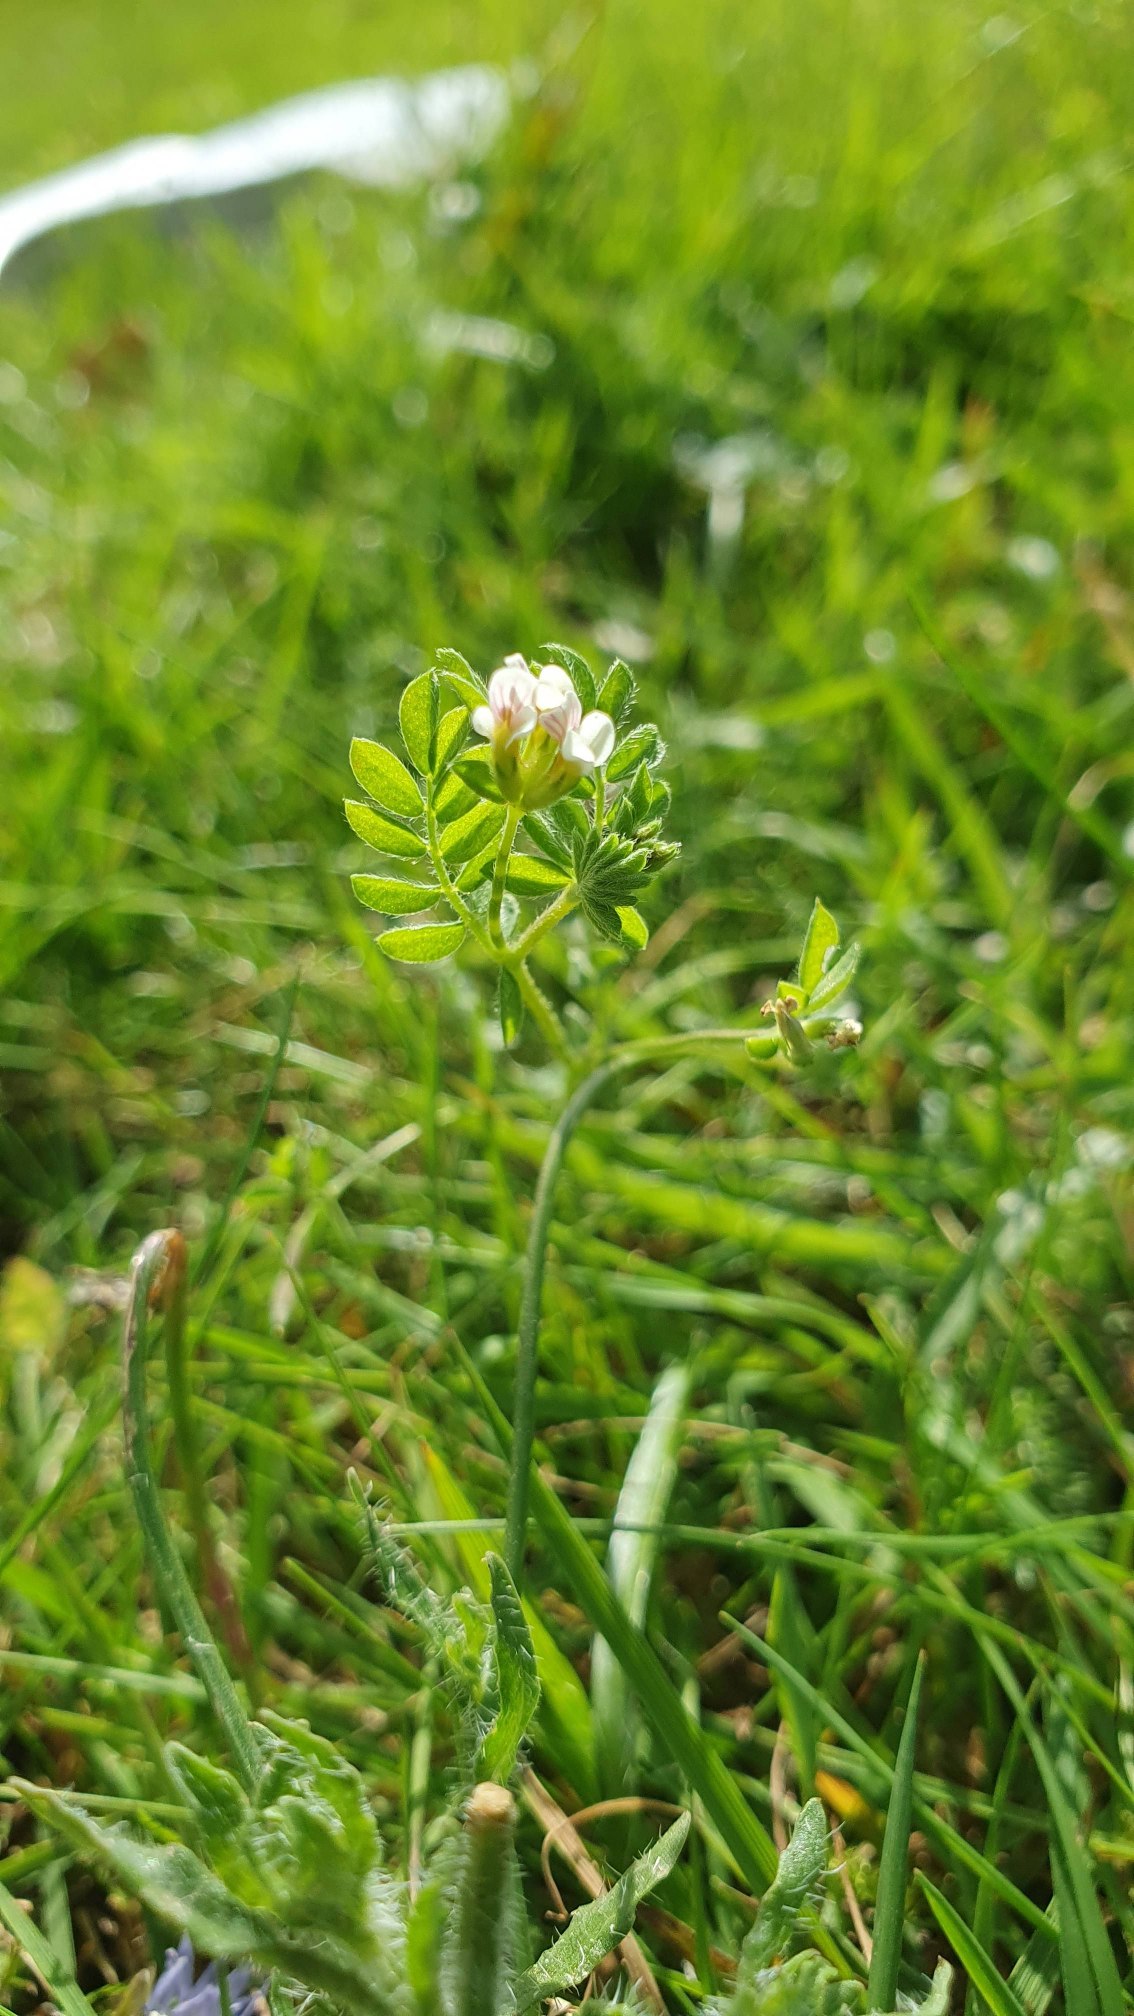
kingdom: Plantae
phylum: Tracheophyta
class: Magnoliopsida
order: Fabales
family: Fabaceae
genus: Ornithopus
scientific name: Ornithopus perpusillus
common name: Liden fugleklo
